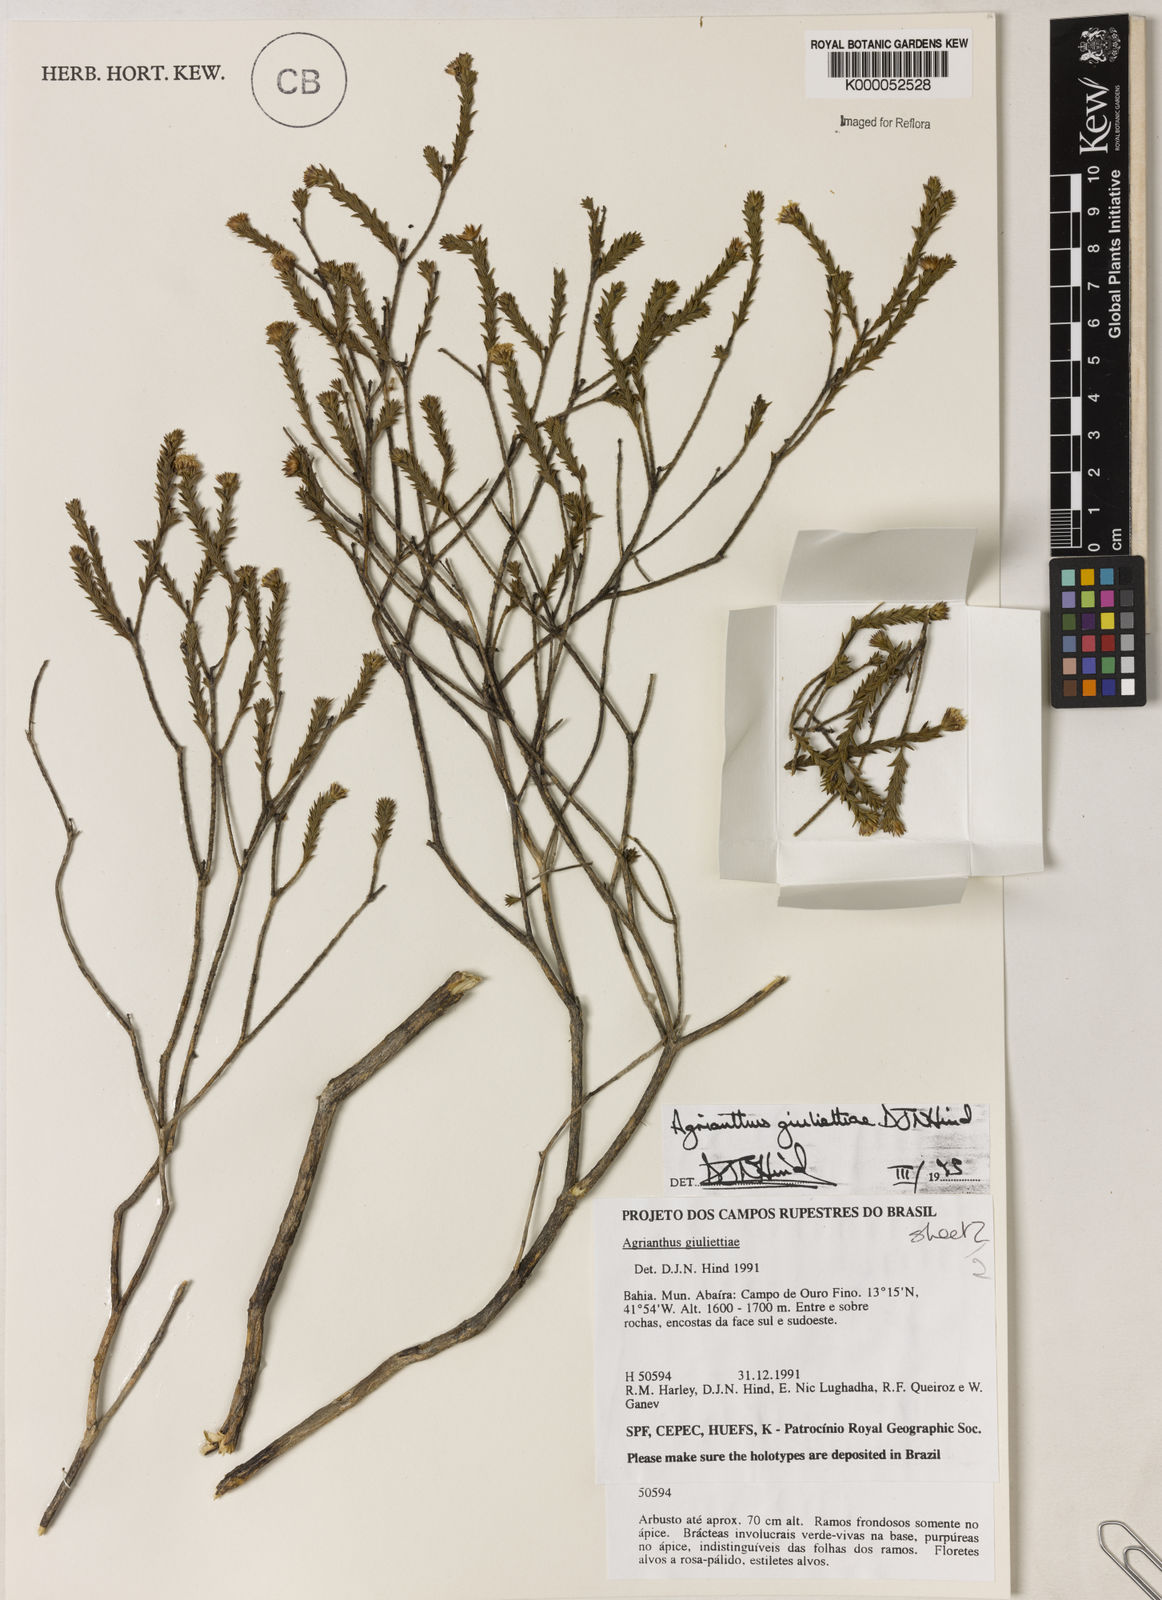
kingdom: Plantae
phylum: Tracheophyta
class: Magnoliopsida
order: Asterales
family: Asteraceae
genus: Agrianthus
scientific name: Agrianthus giuliettiae
